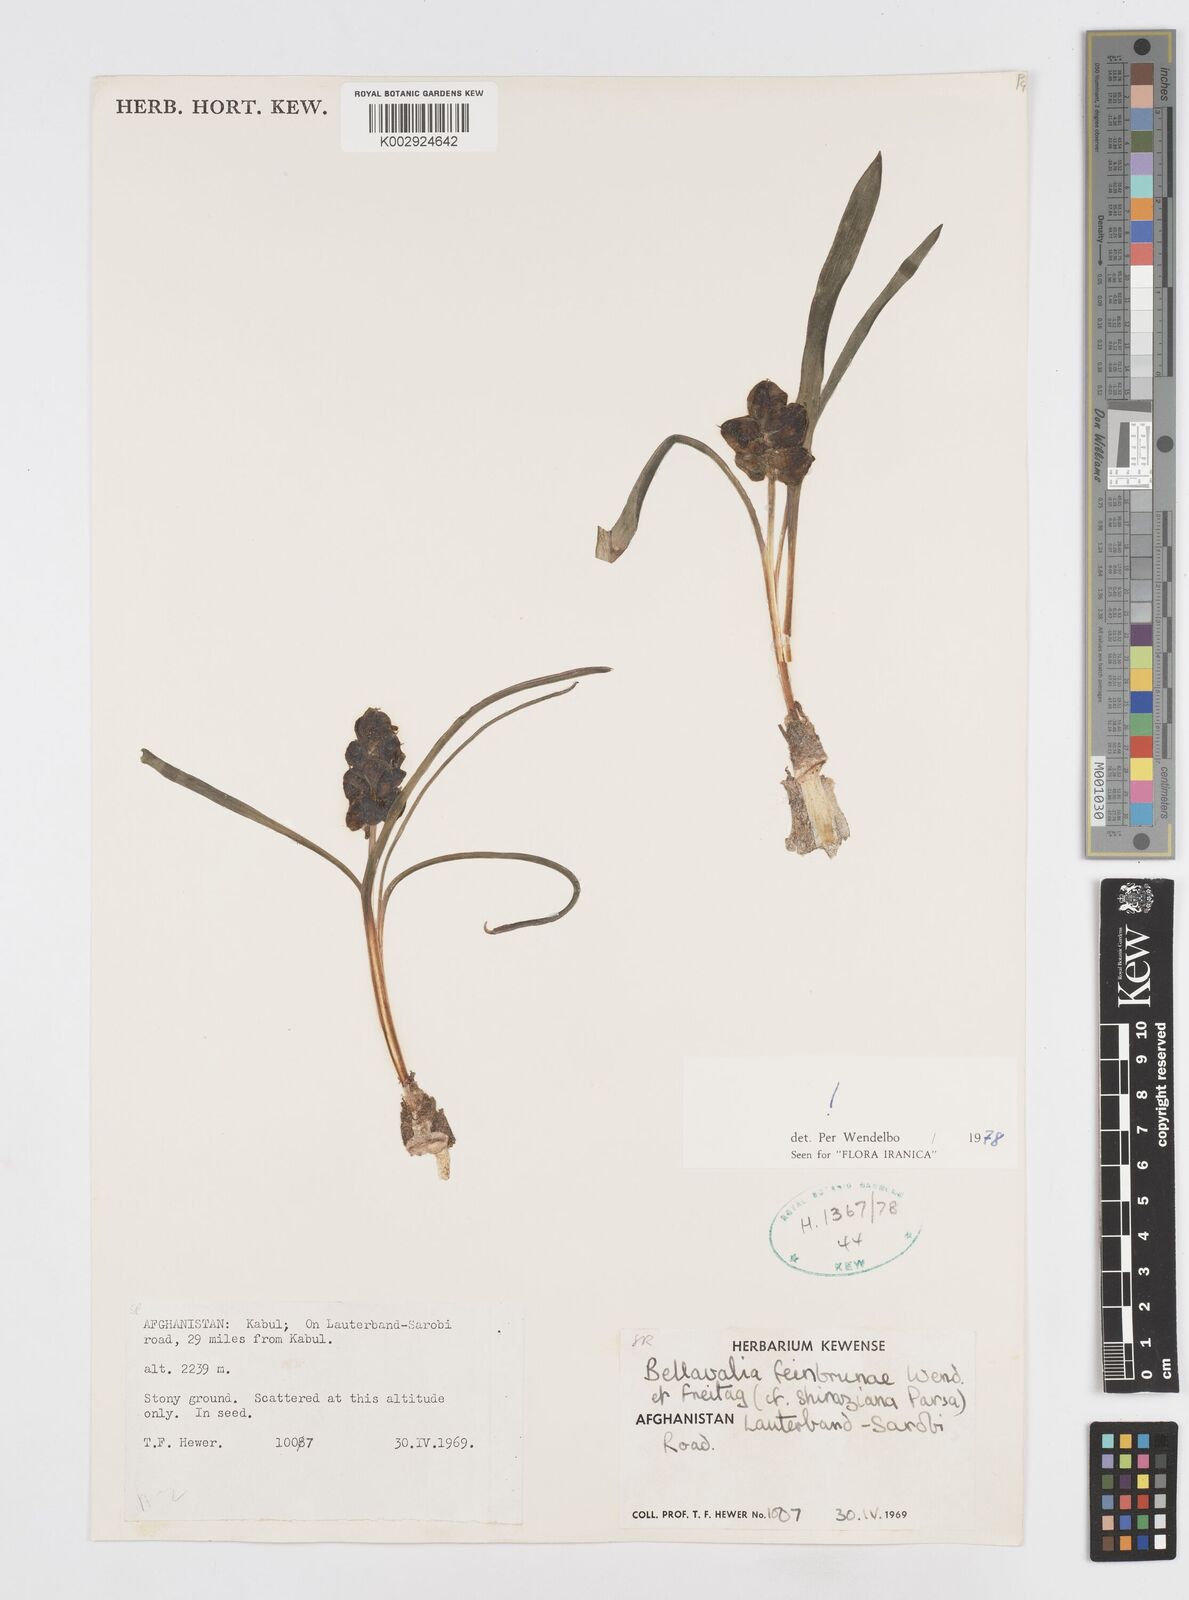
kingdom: Plantae
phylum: Tracheophyta
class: Liliopsida
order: Asparagales
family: Asparagaceae
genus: Bellevalia
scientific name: Bellevalia feinbruniae
